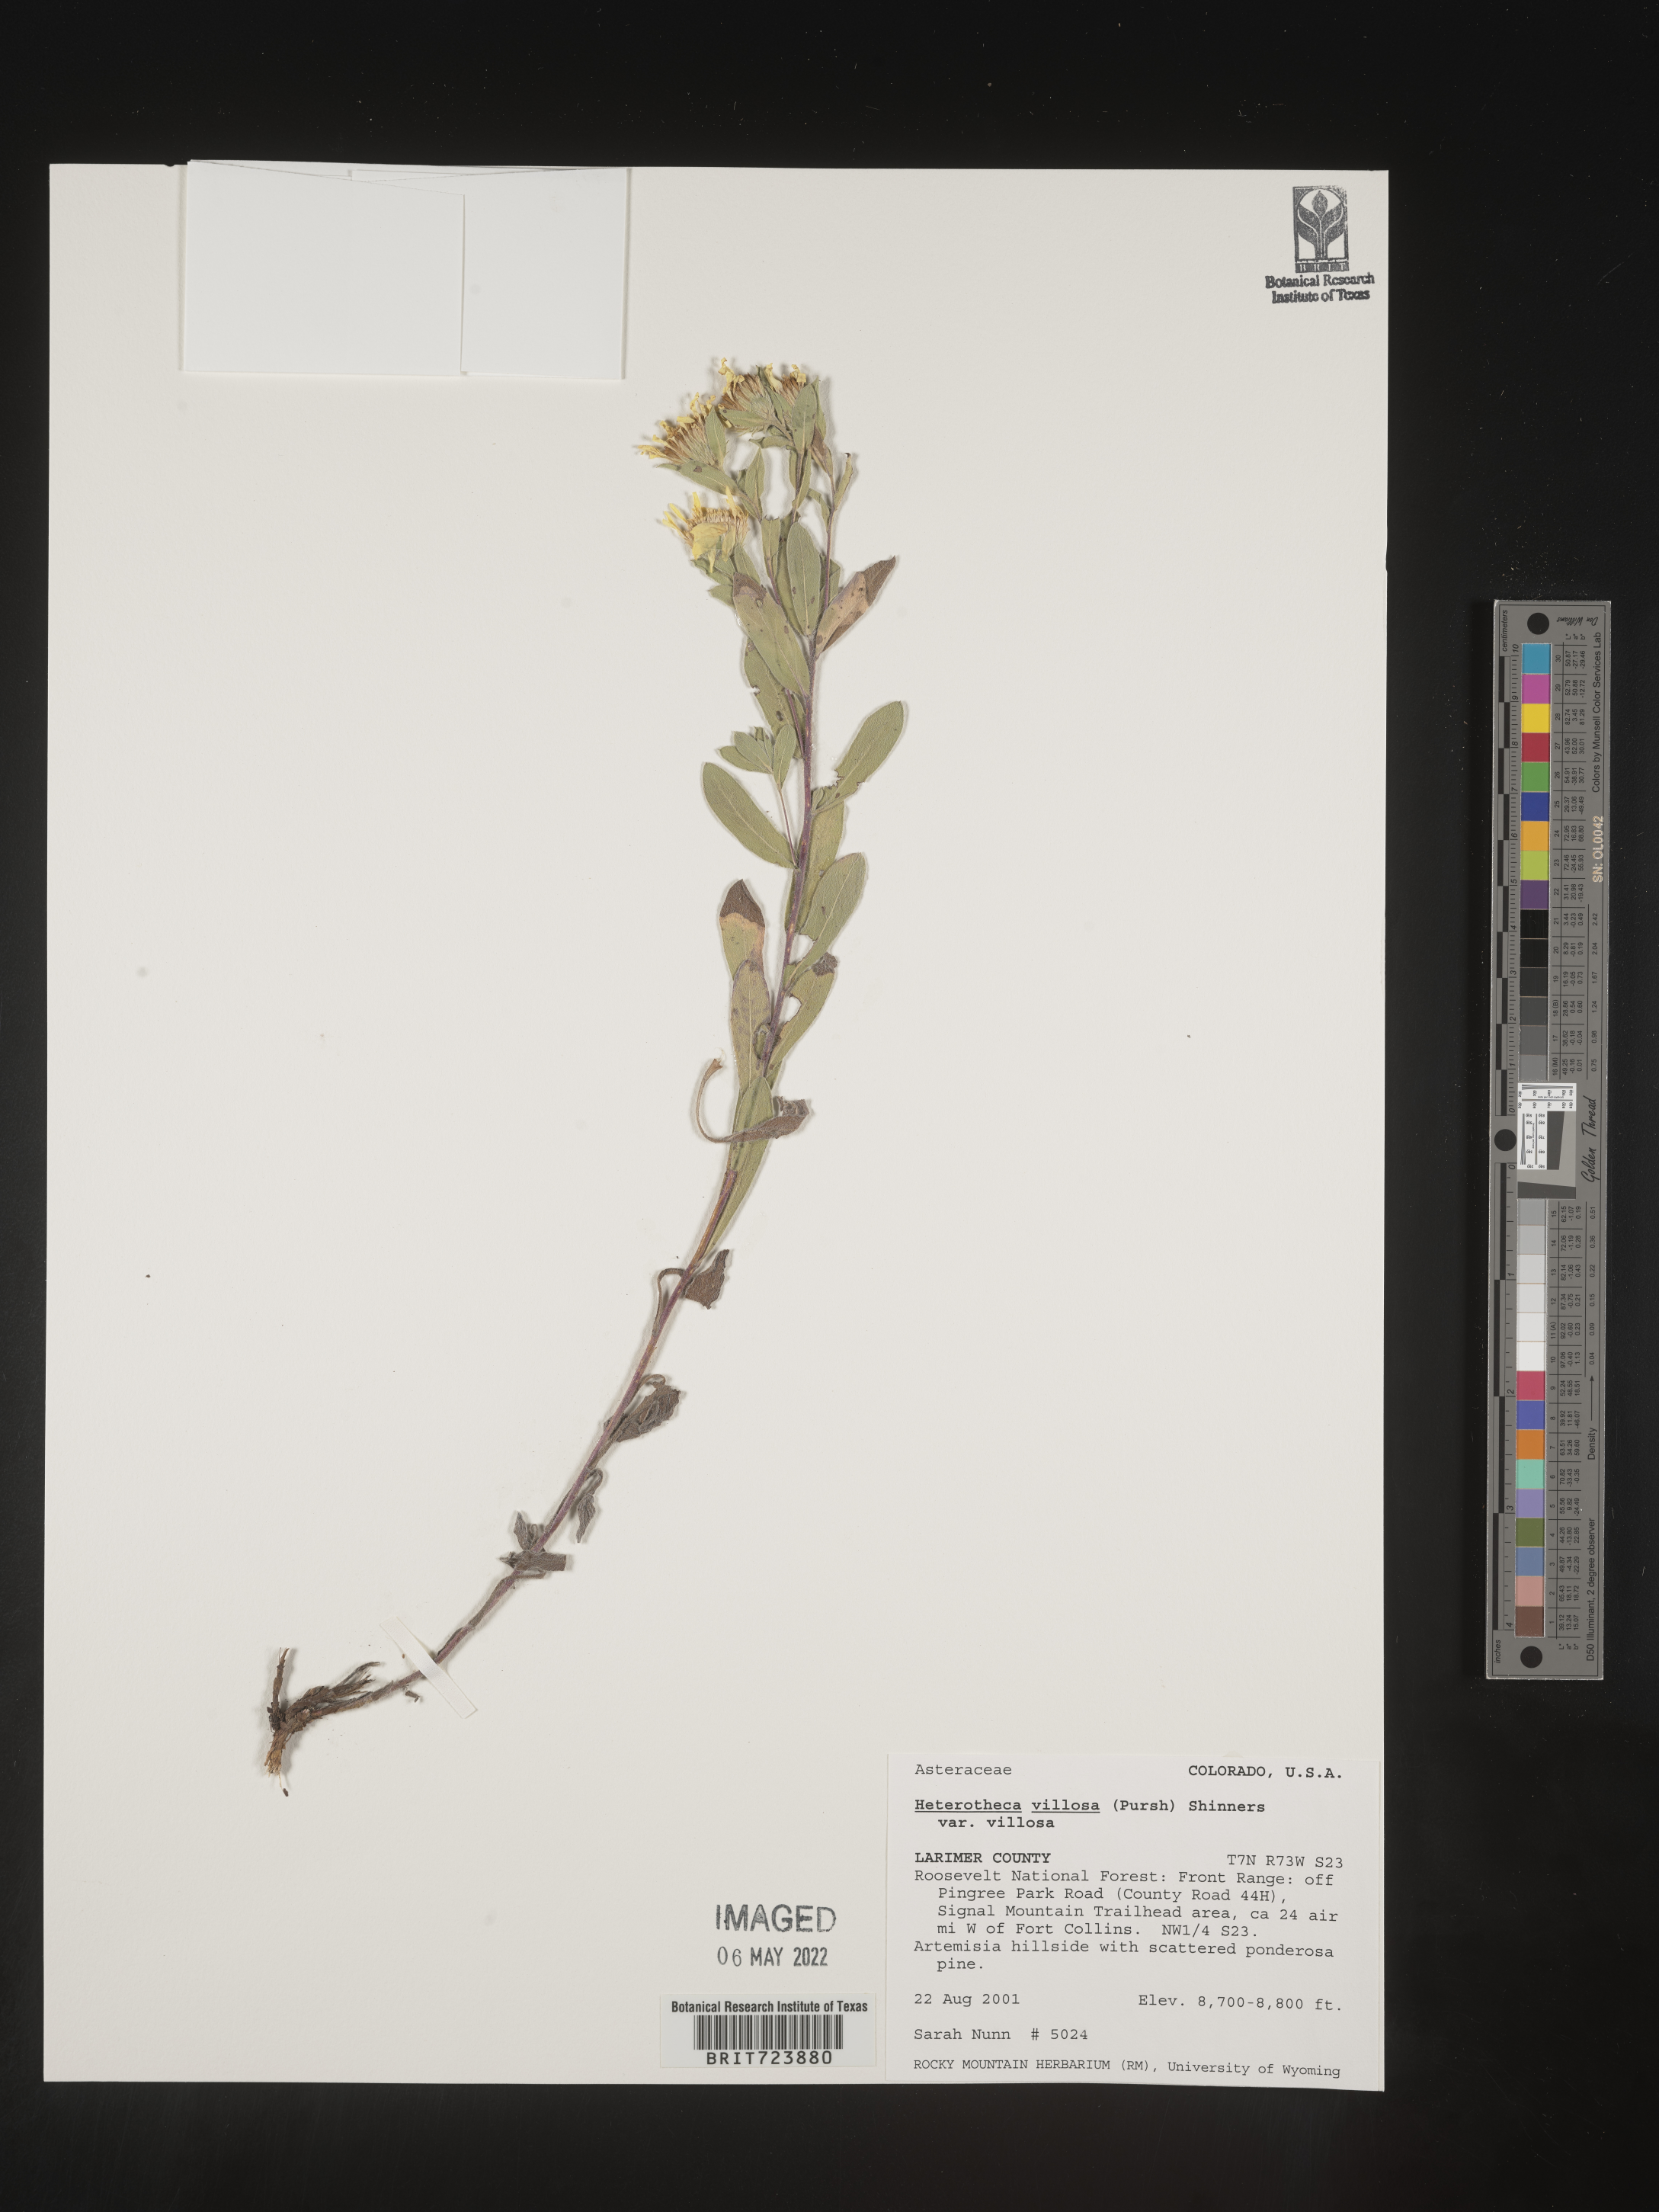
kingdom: Plantae
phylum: Tracheophyta
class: Magnoliopsida
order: Asterales
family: Asteraceae
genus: Heterotheca
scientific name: Heterotheca pumila
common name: Alpine golden-aster
